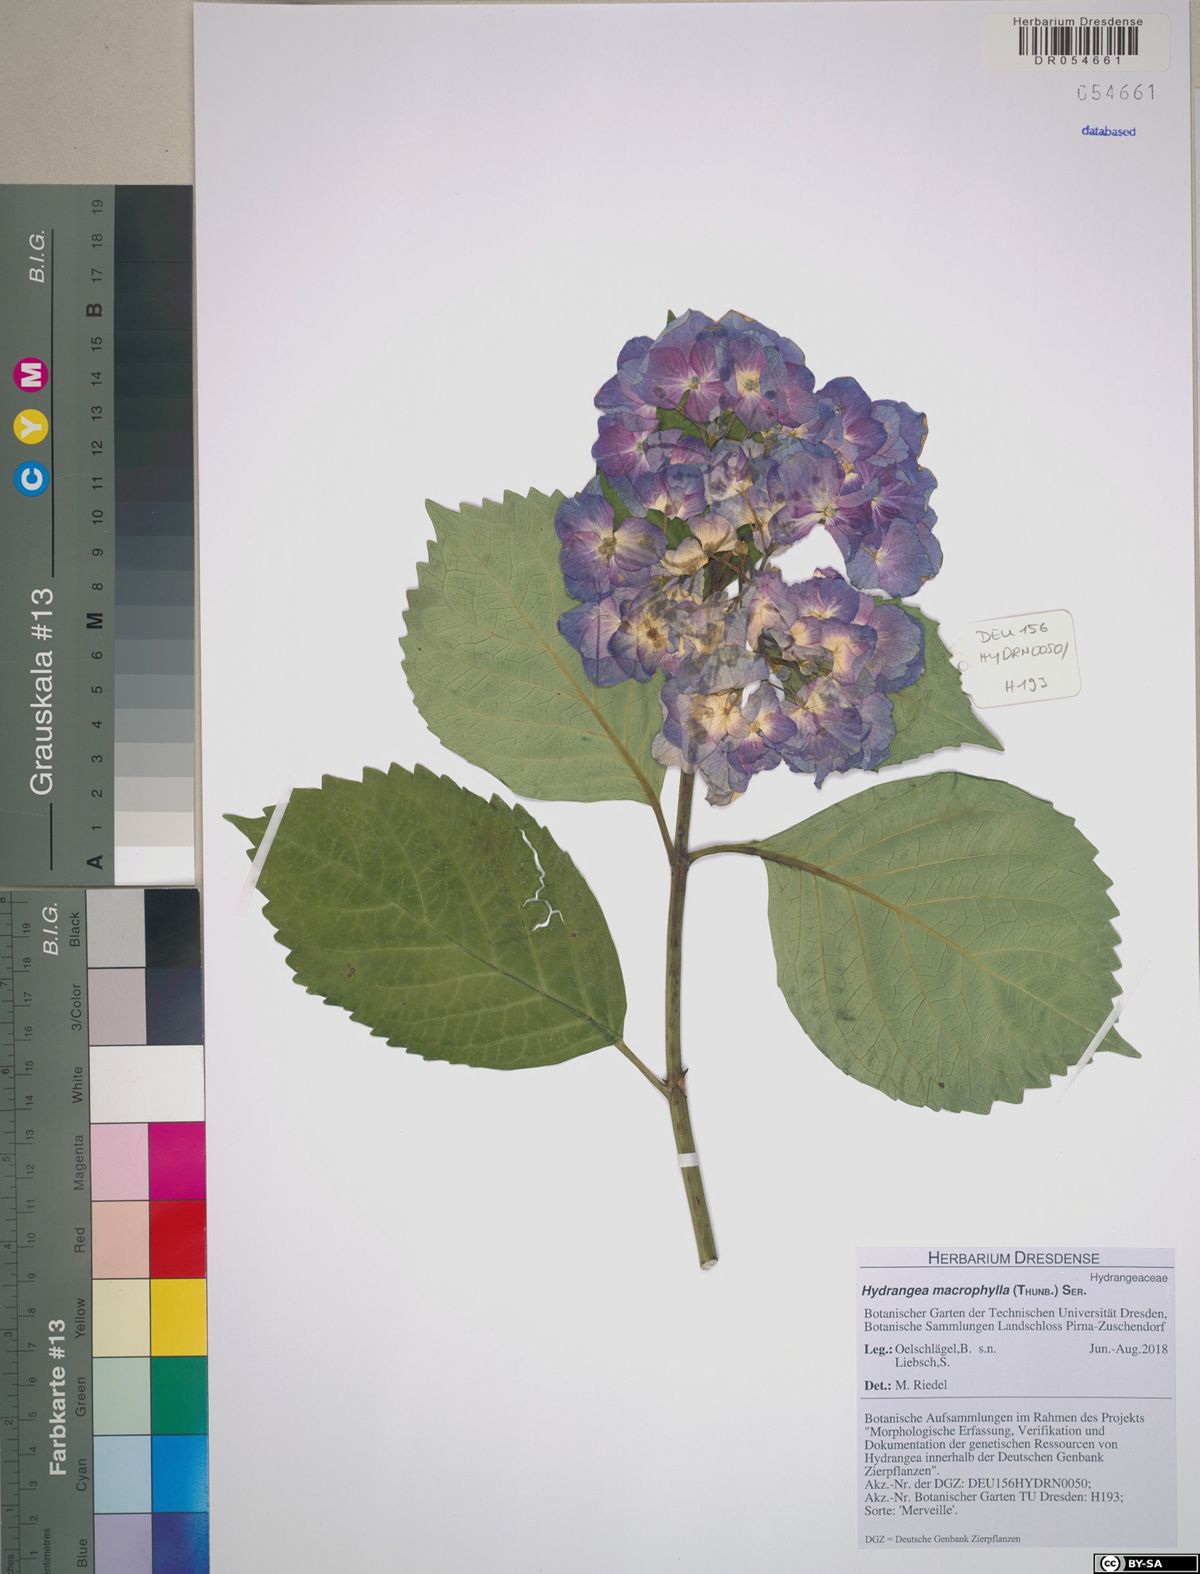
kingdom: Plantae
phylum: Tracheophyta
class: Magnoliopsida
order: Cornales
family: Hydrangeaceae
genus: Hydrangea
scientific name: Hydrangea macrophylla
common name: Hydrangea
